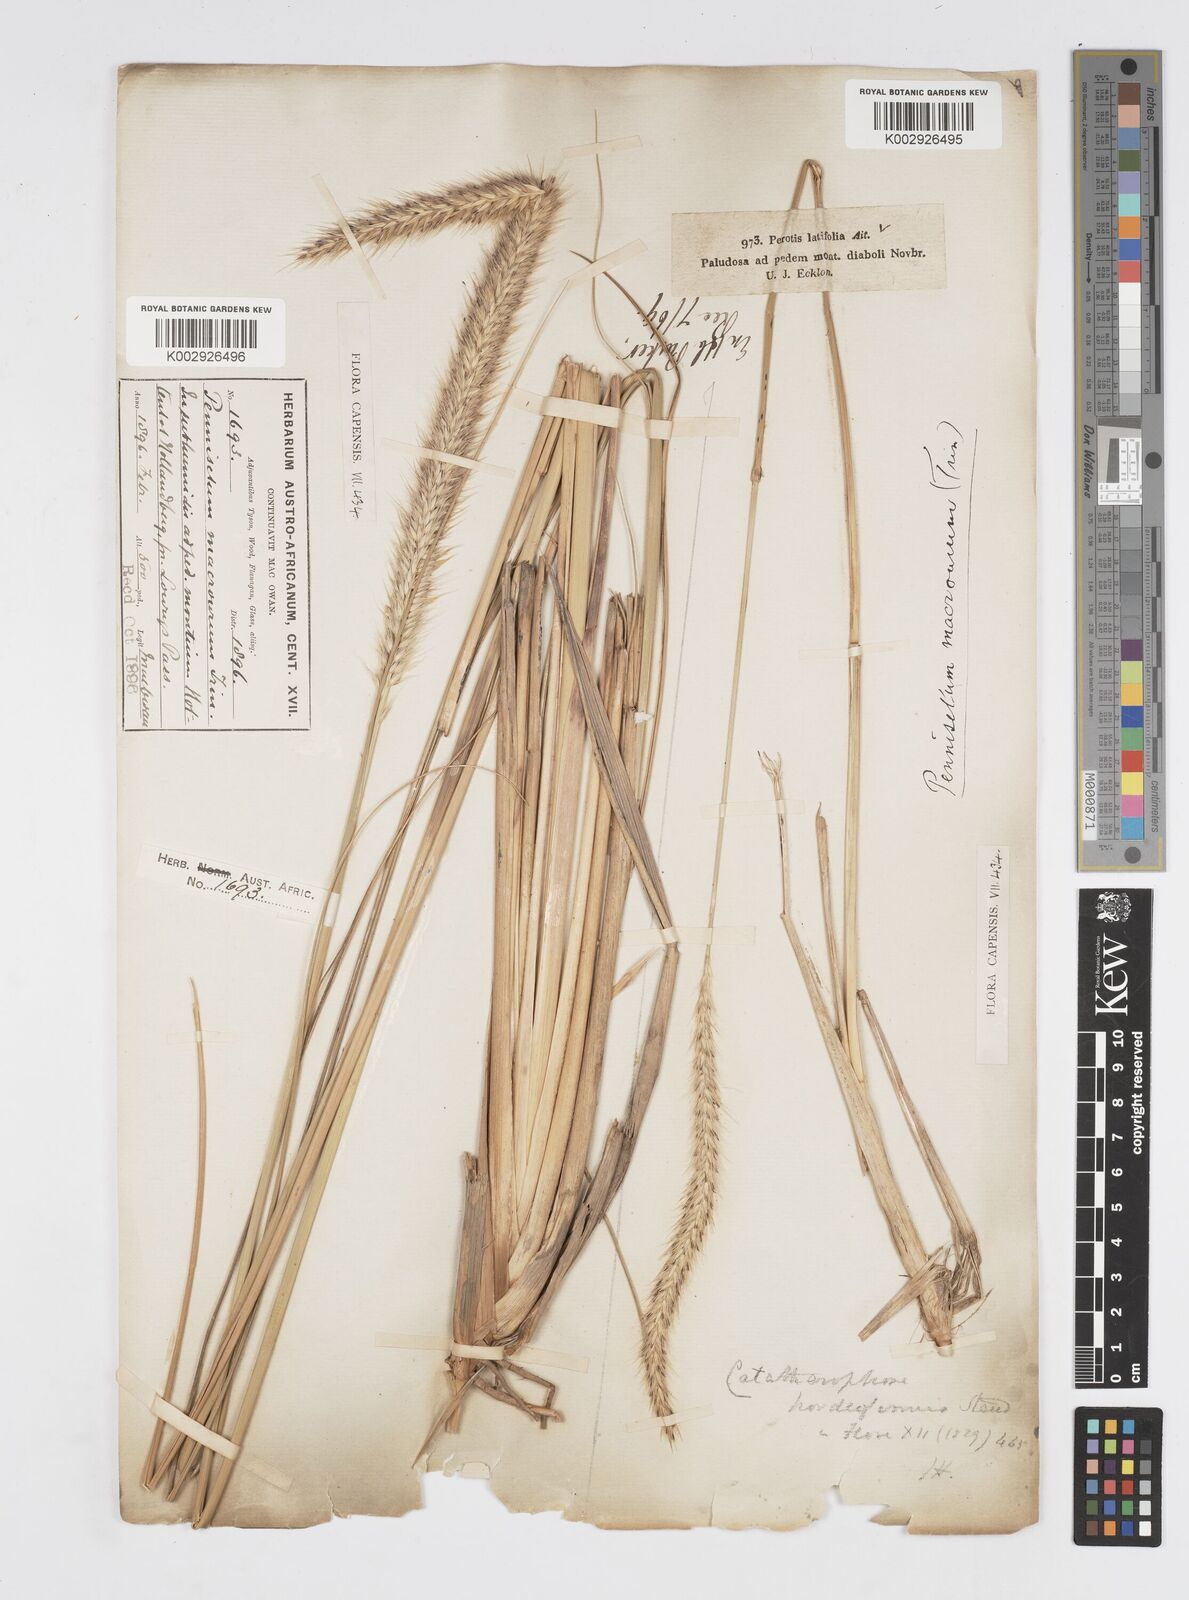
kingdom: Plantae
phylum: Tracheophyta
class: Liliopsida
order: Poales
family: Poaceae
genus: Cenchrus
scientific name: Cenchrus caudatus
